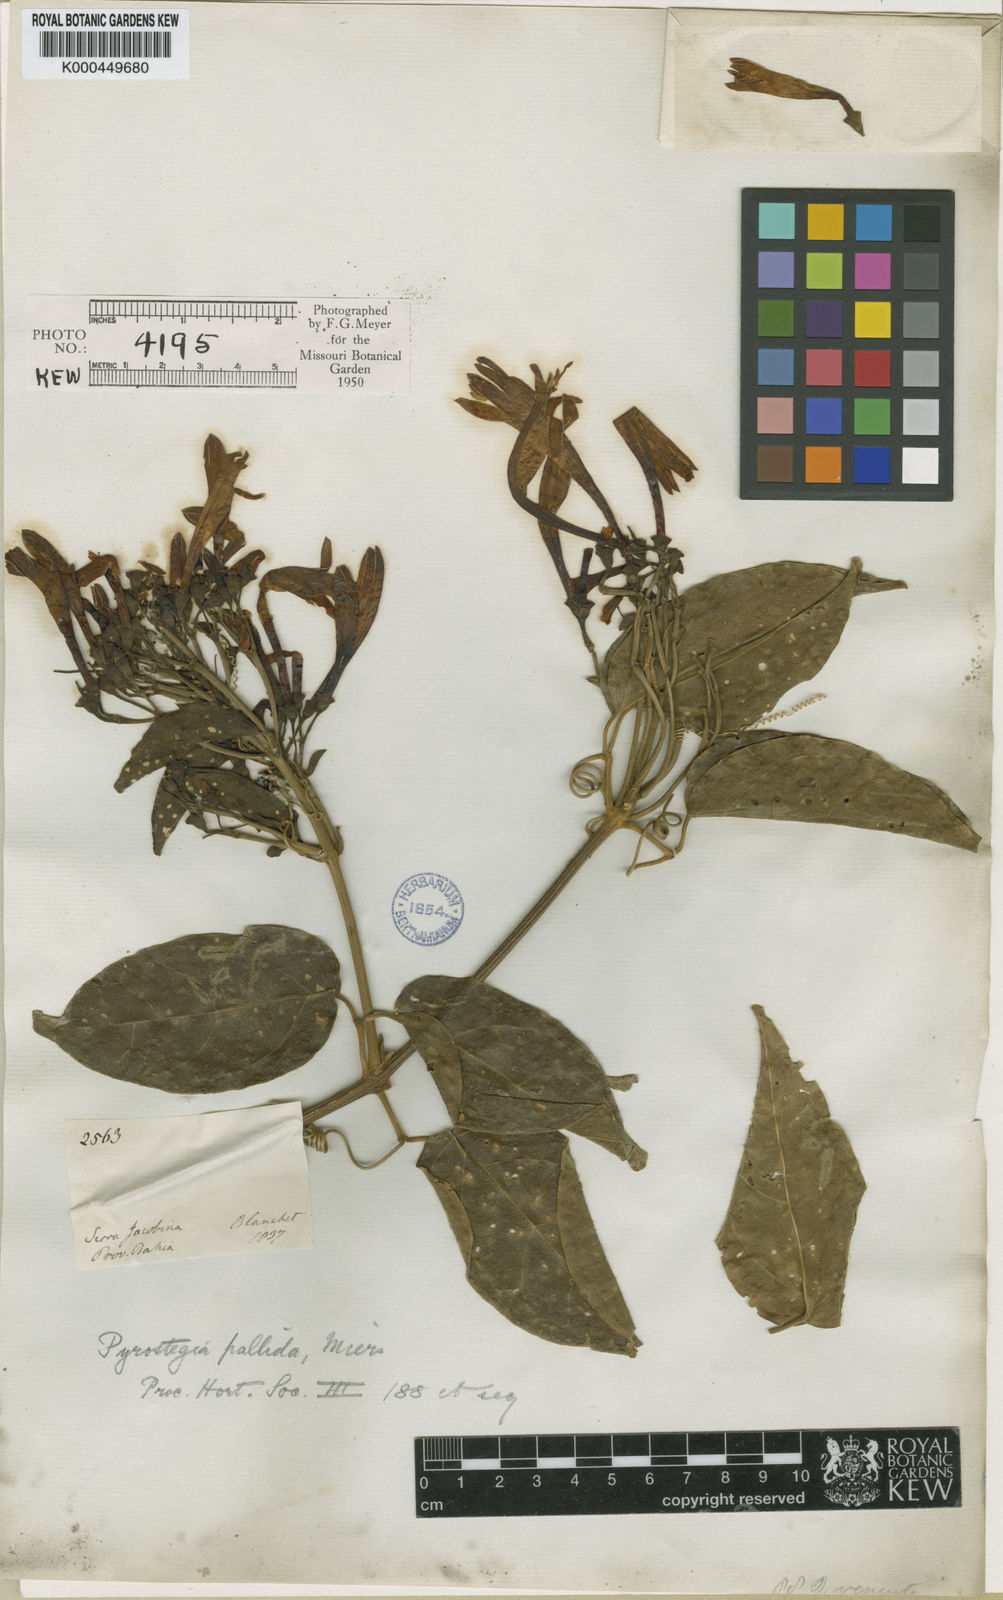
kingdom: Plantae
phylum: Tracheophyta
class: Magnoliopsida
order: Lamiales
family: Bignoniaceae
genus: Pyrostegia
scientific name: Pyrostegia venusta
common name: Flamevine
